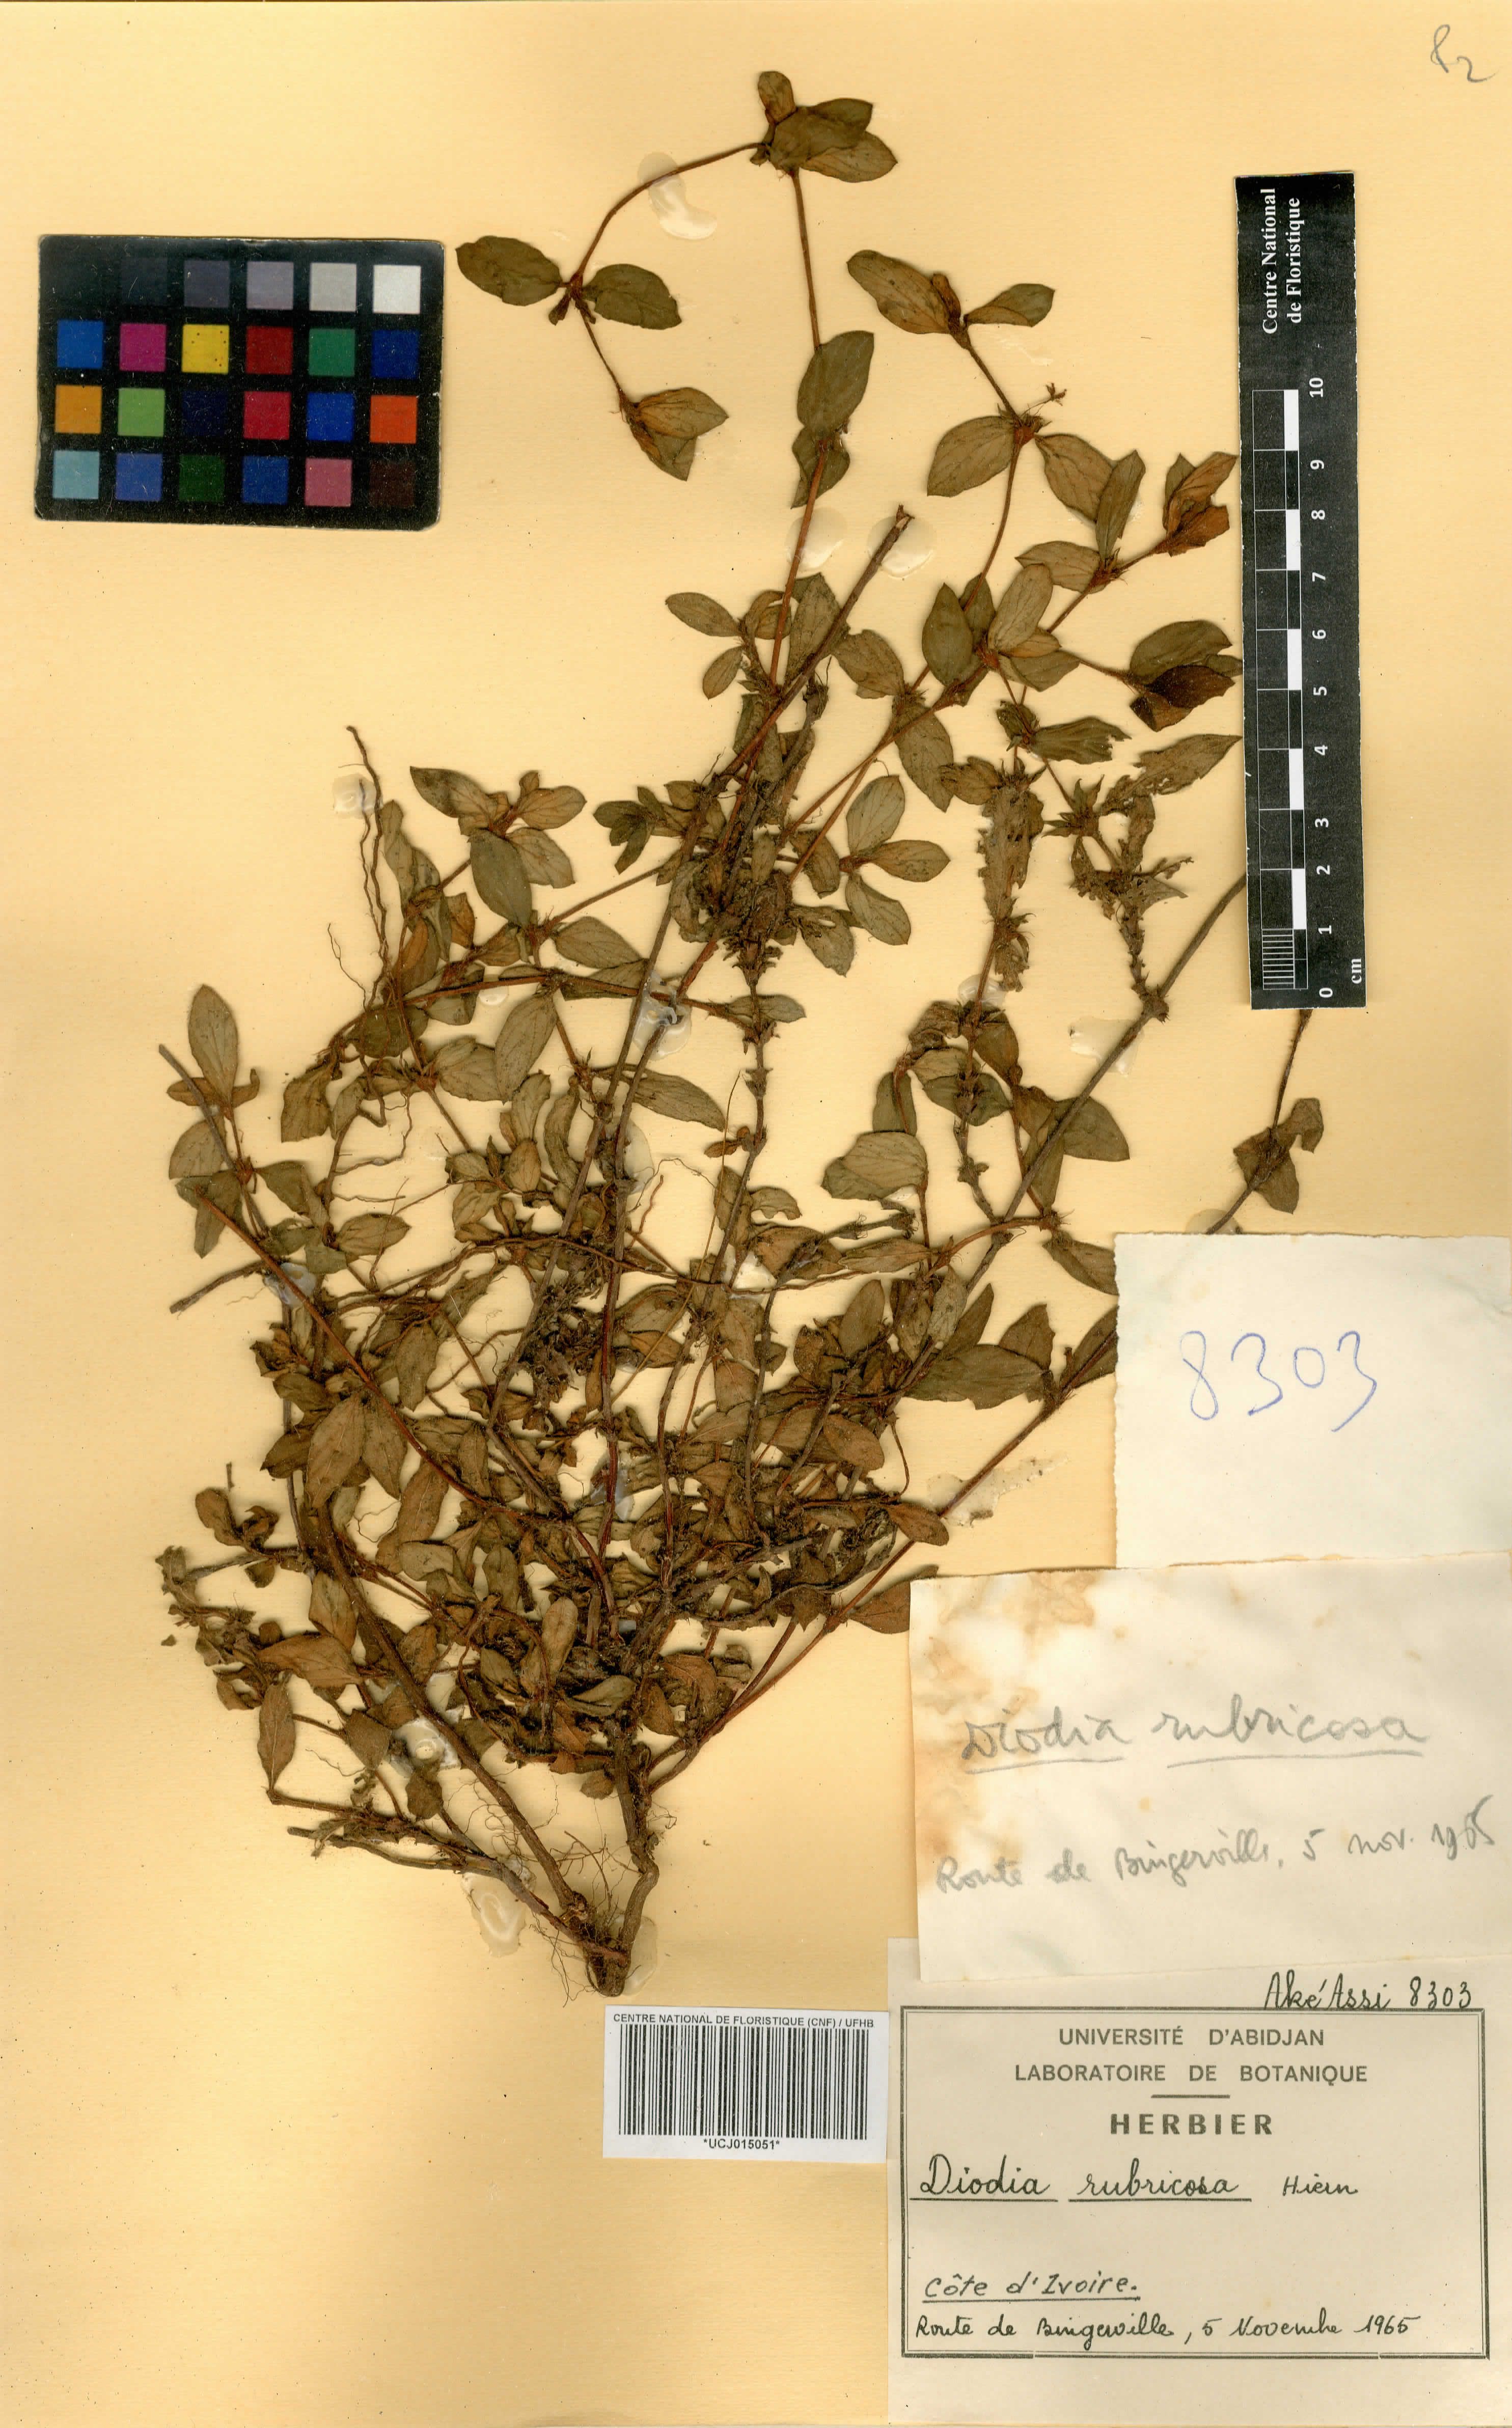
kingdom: Plantae
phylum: Tracheophyta
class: Magnoliopsida
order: Gentianales
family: Rubiaceae
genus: Diodia
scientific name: Diodia rubricosa
